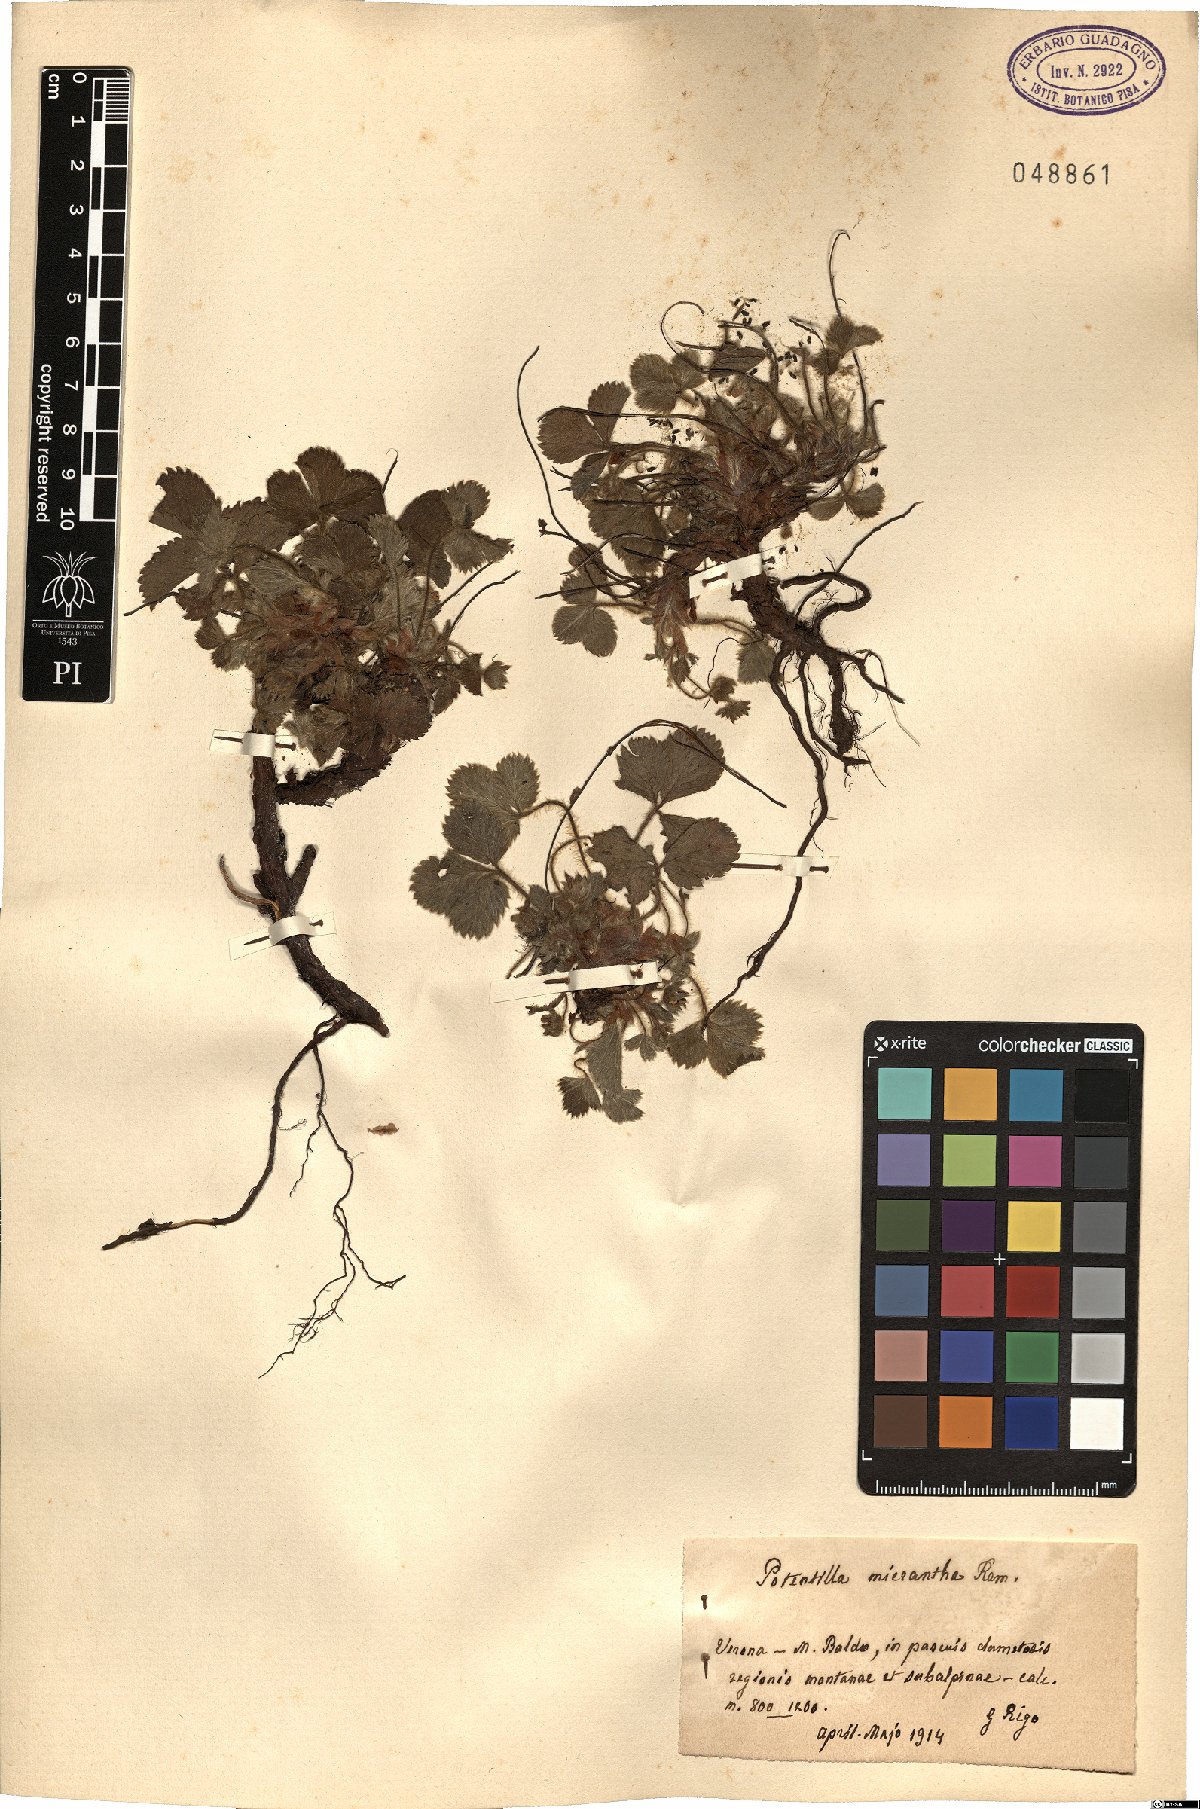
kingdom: Plantae
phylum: Tracheophyta
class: Magnoliopsida
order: Rosales
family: Rosaceae
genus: Potentilla
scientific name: Potentilla micrantha
